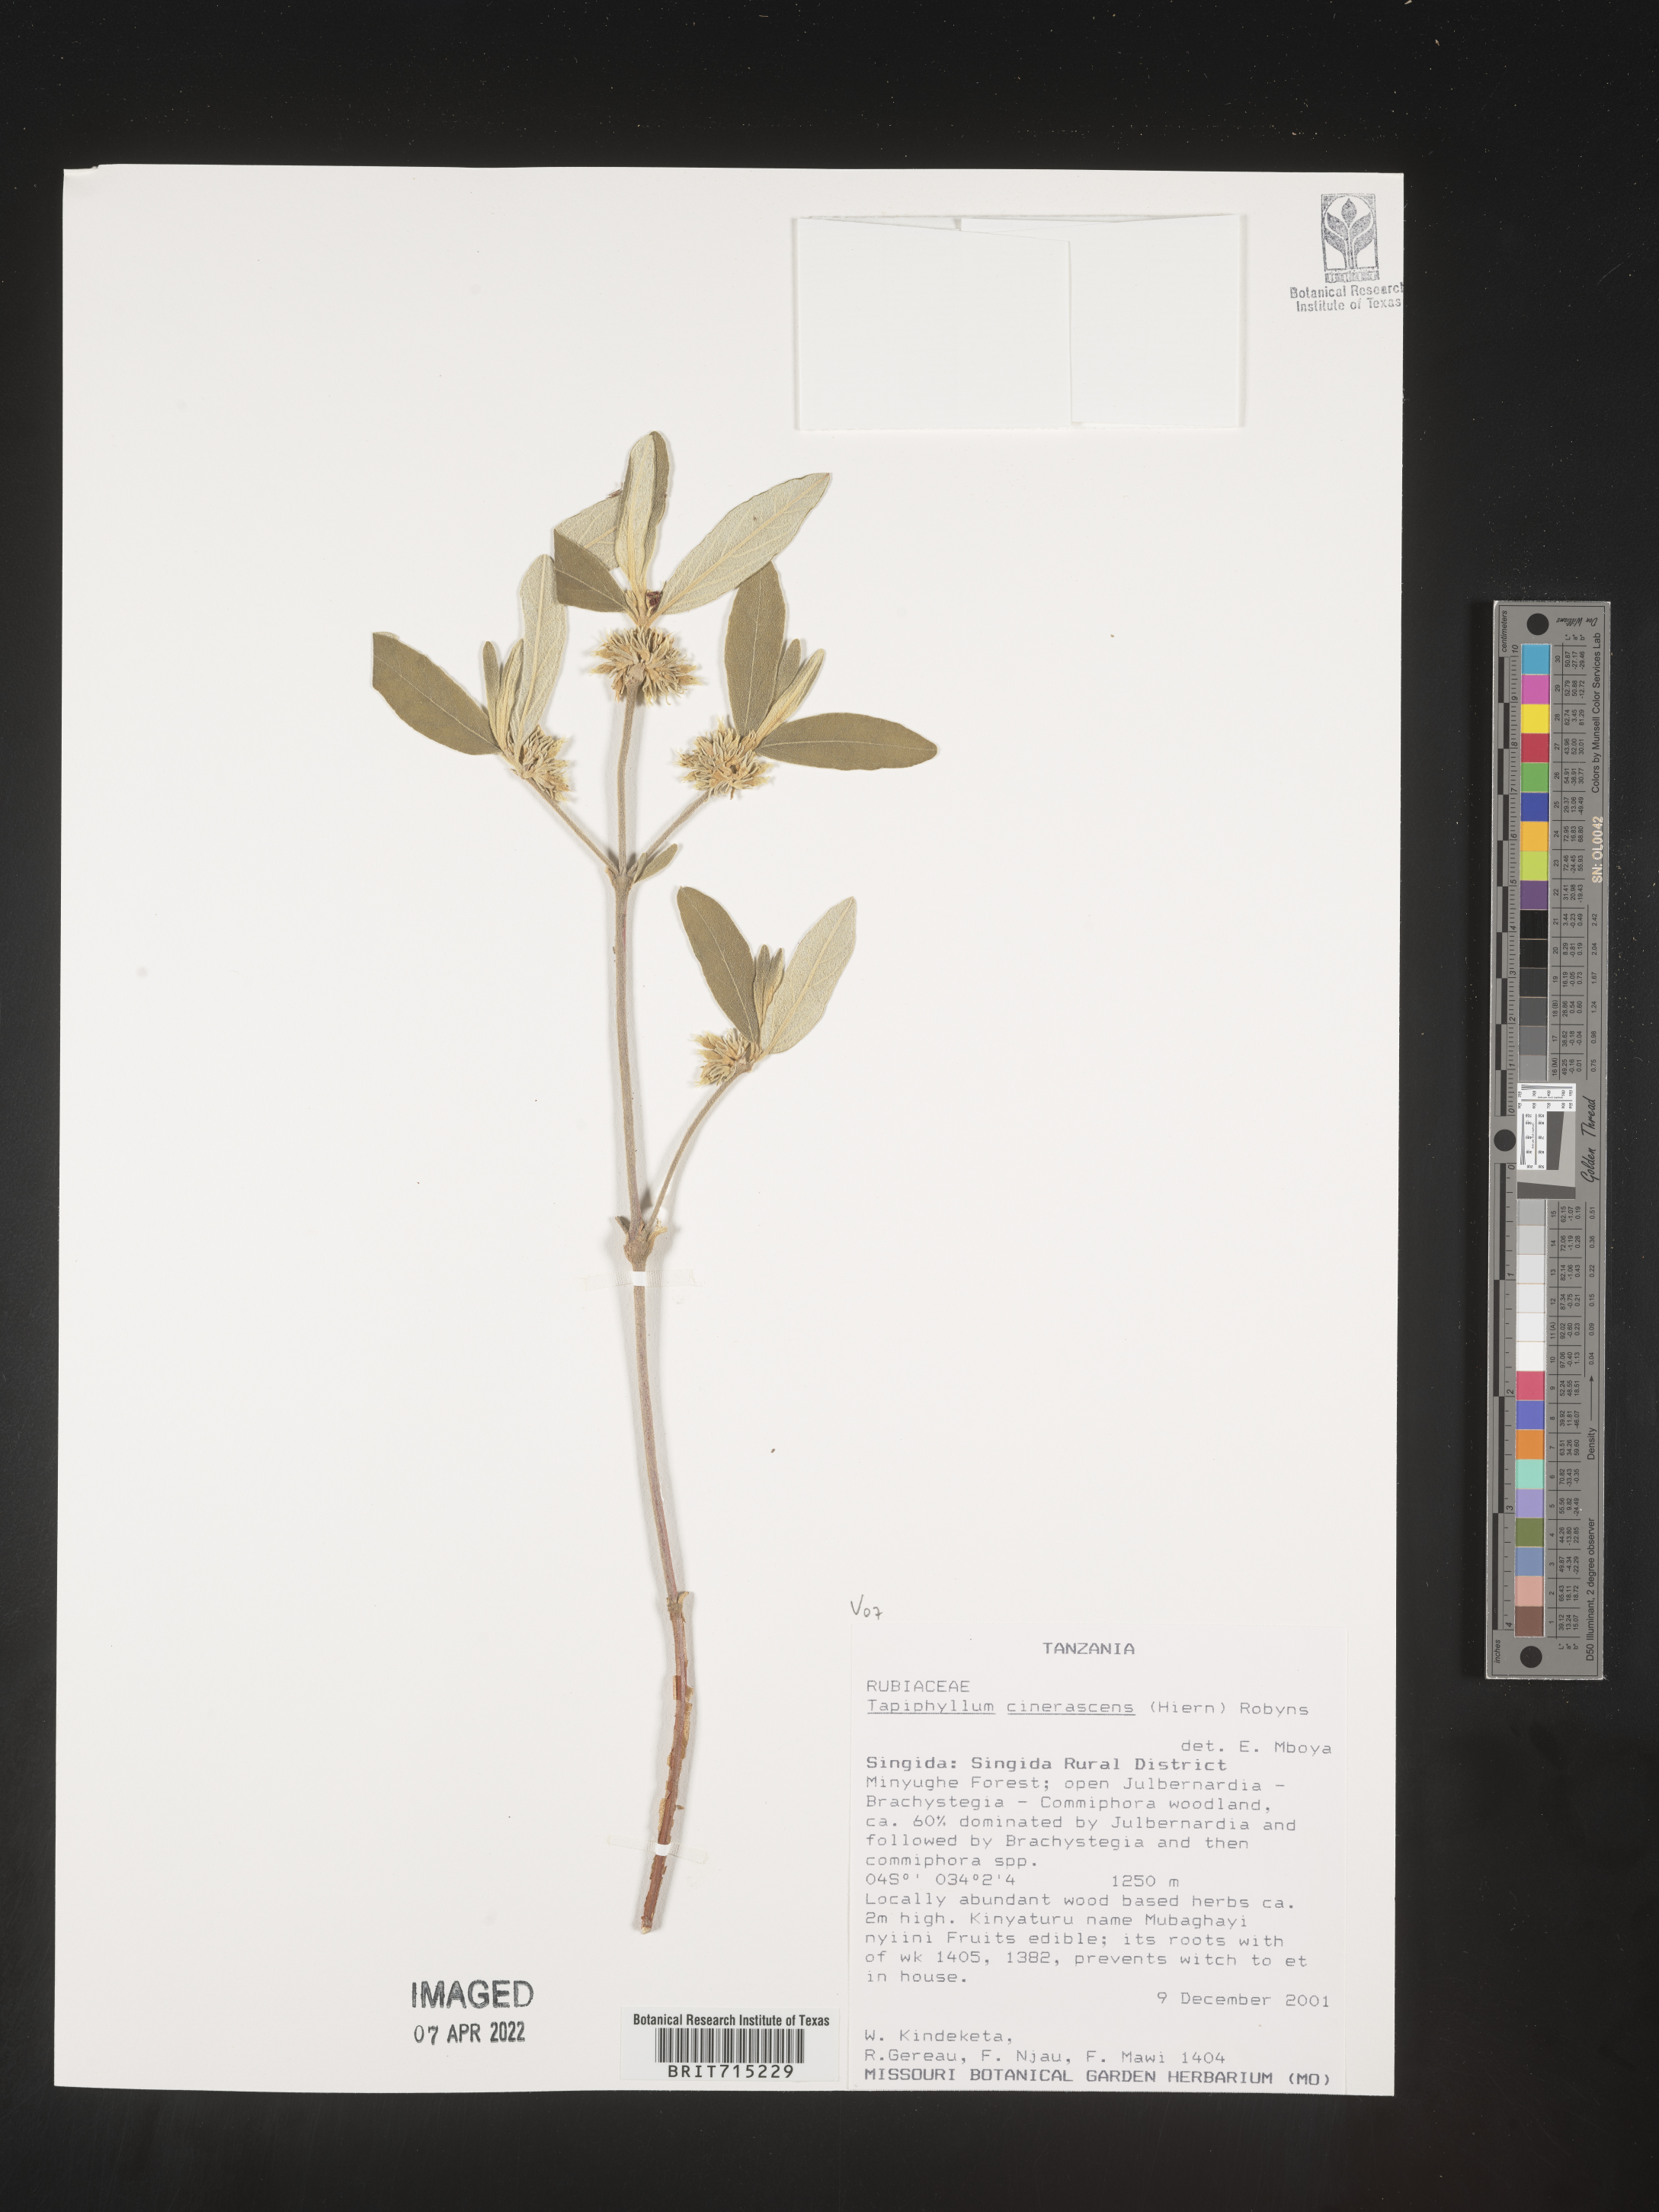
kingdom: Plantae
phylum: Tracheophyta
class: Magnoliopsida
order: Gentianales
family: Rubiaceae
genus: Vangueria
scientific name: Vangueria
